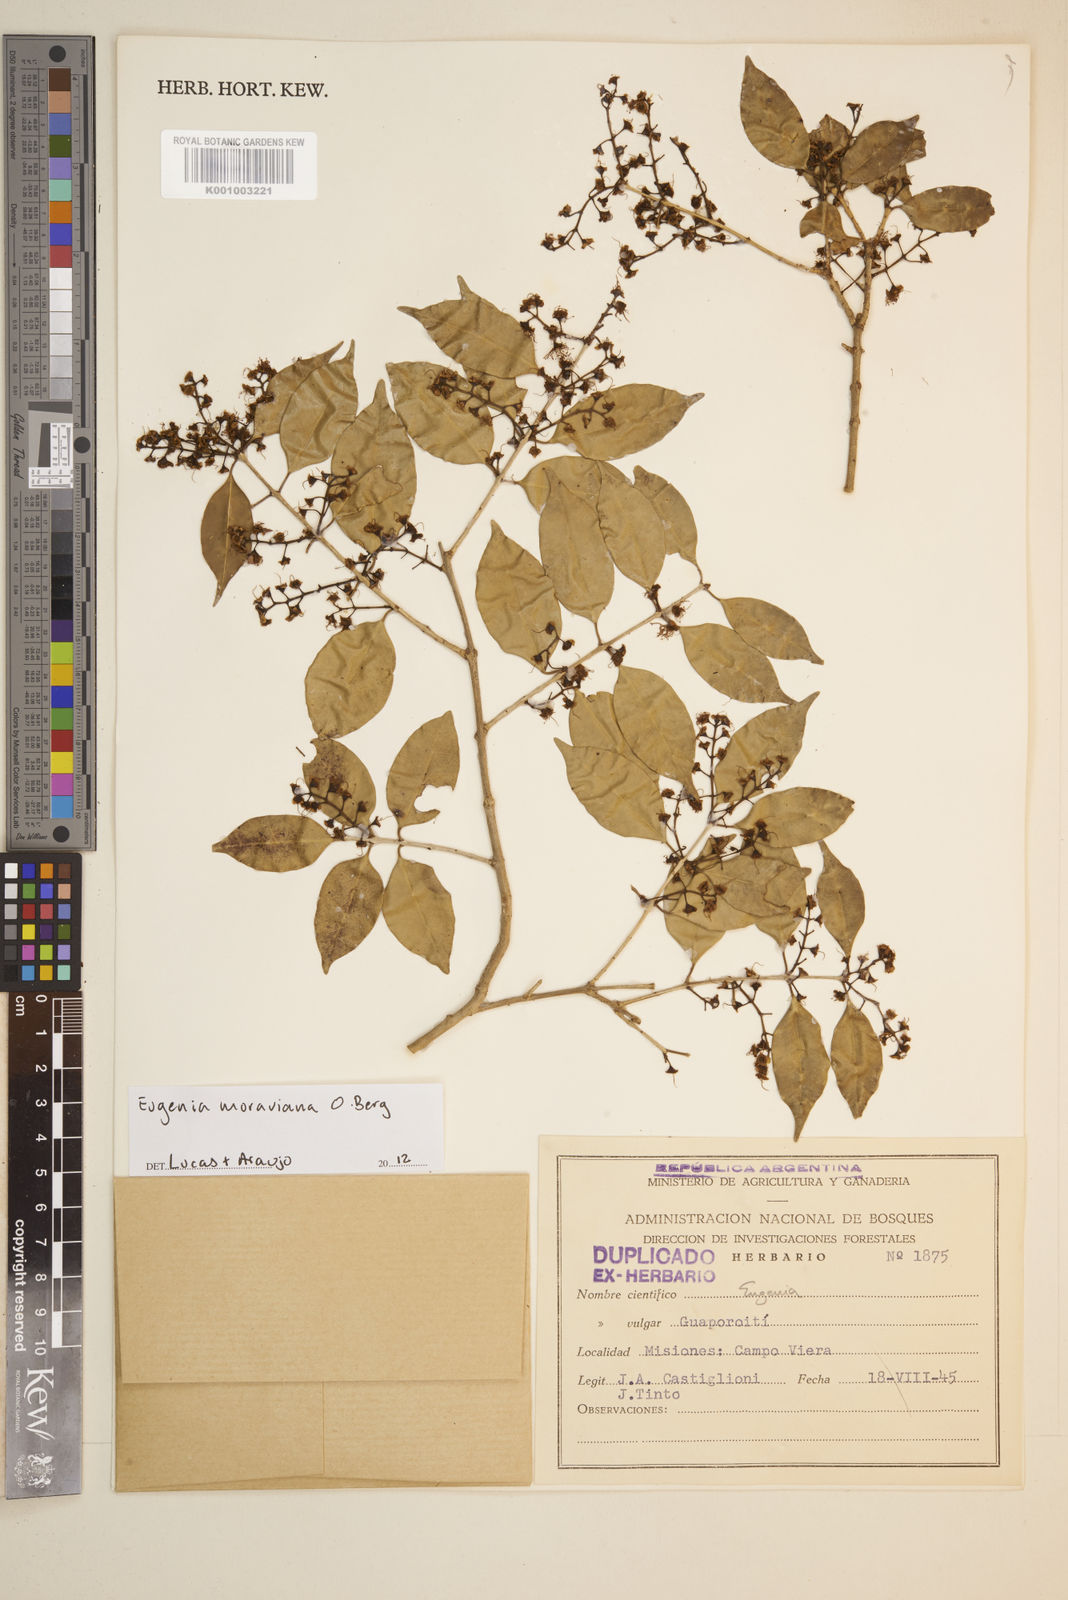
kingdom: Plantae
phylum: Tracheophyta
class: Magnoliopsida
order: Myrtales
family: Myrtaceae
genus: Eugenia
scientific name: Eugenia moraviana
